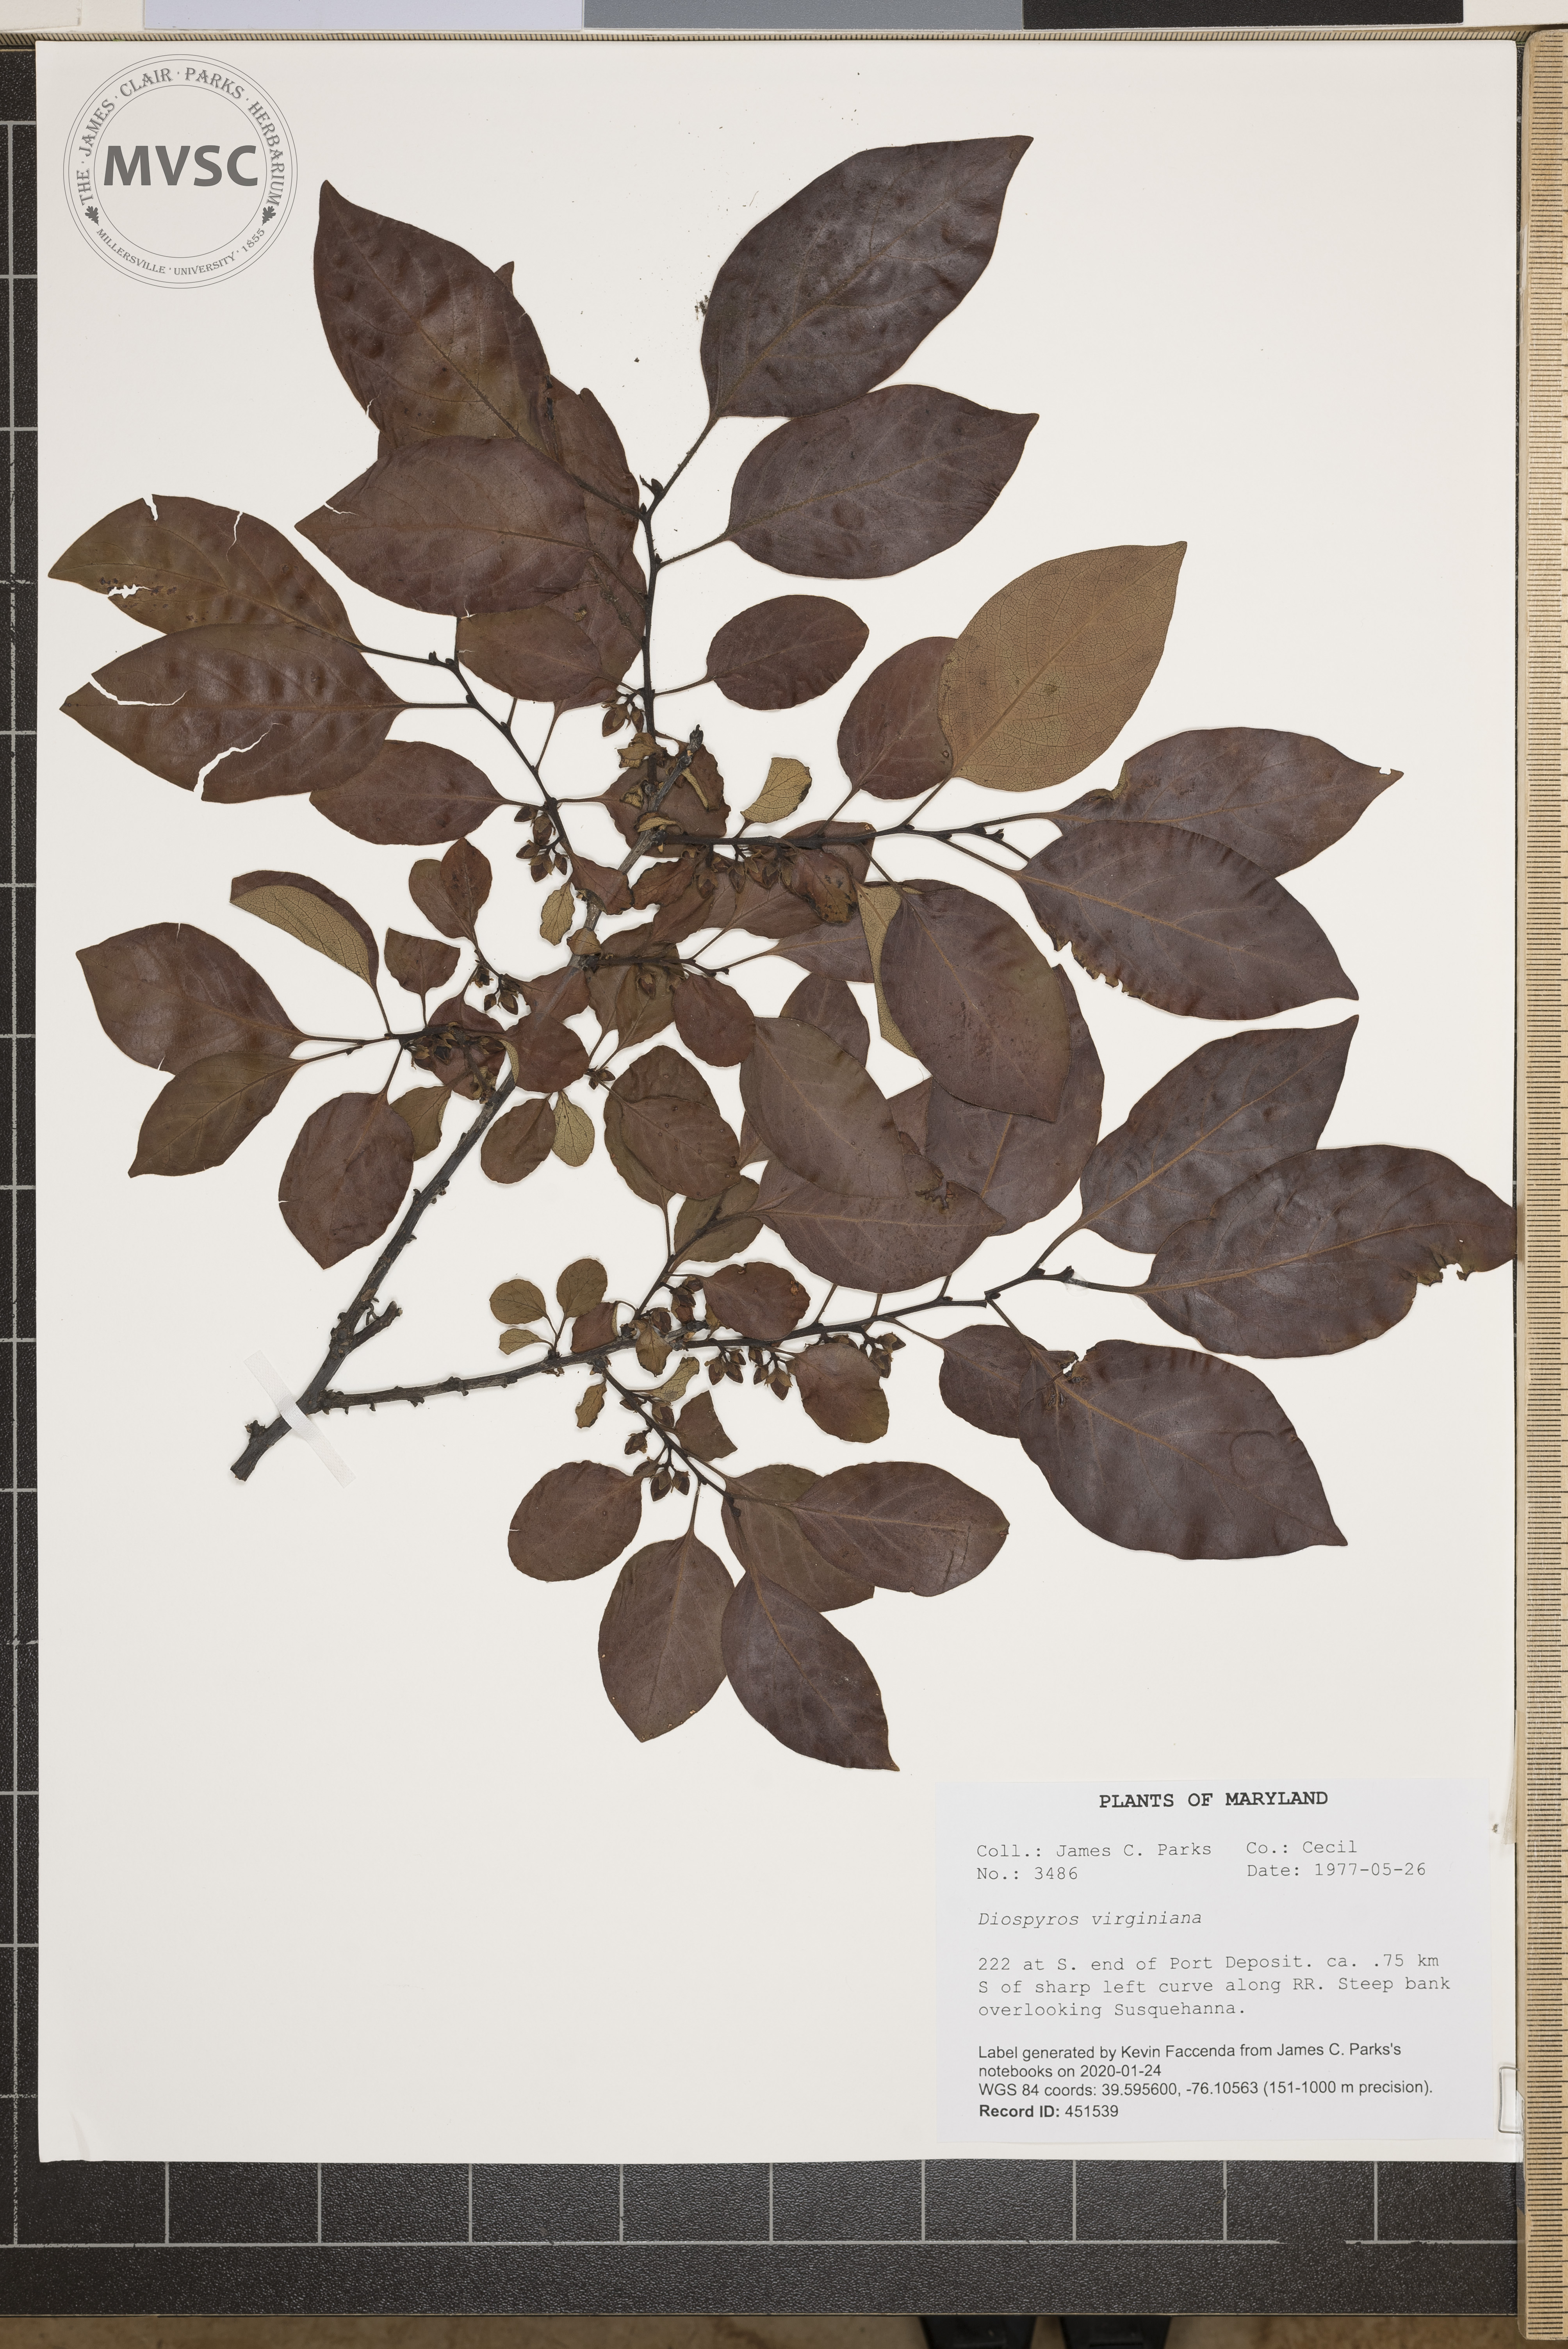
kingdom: Plantae
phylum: Tracheophyta
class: Magnoliopsida
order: Ericales
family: Ebenaceae
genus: Diospyros
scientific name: Diospyros virginiana
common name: Persimmon
